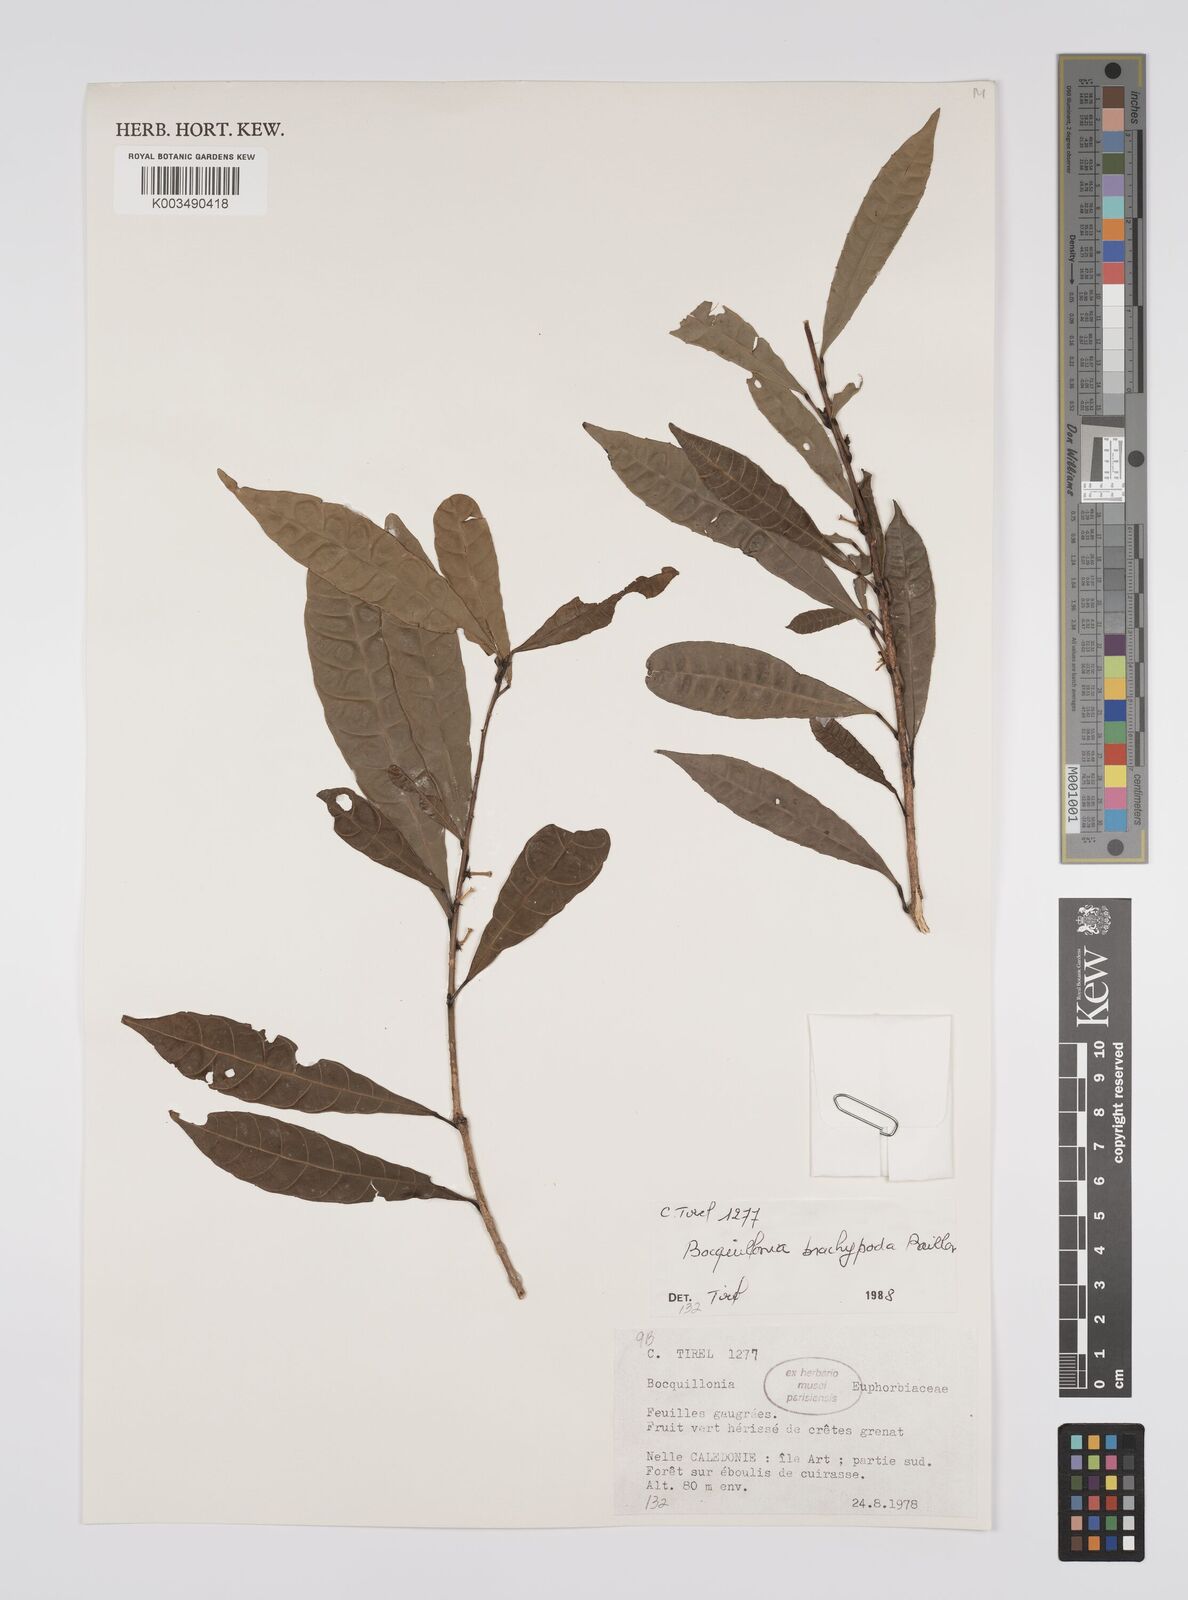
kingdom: Plantae
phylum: Tracheophyta
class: Magnoliopsida
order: Malpighiales
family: Euphorbiaceae
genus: Bocquillonia
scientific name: Bocquillonia brachypoda
